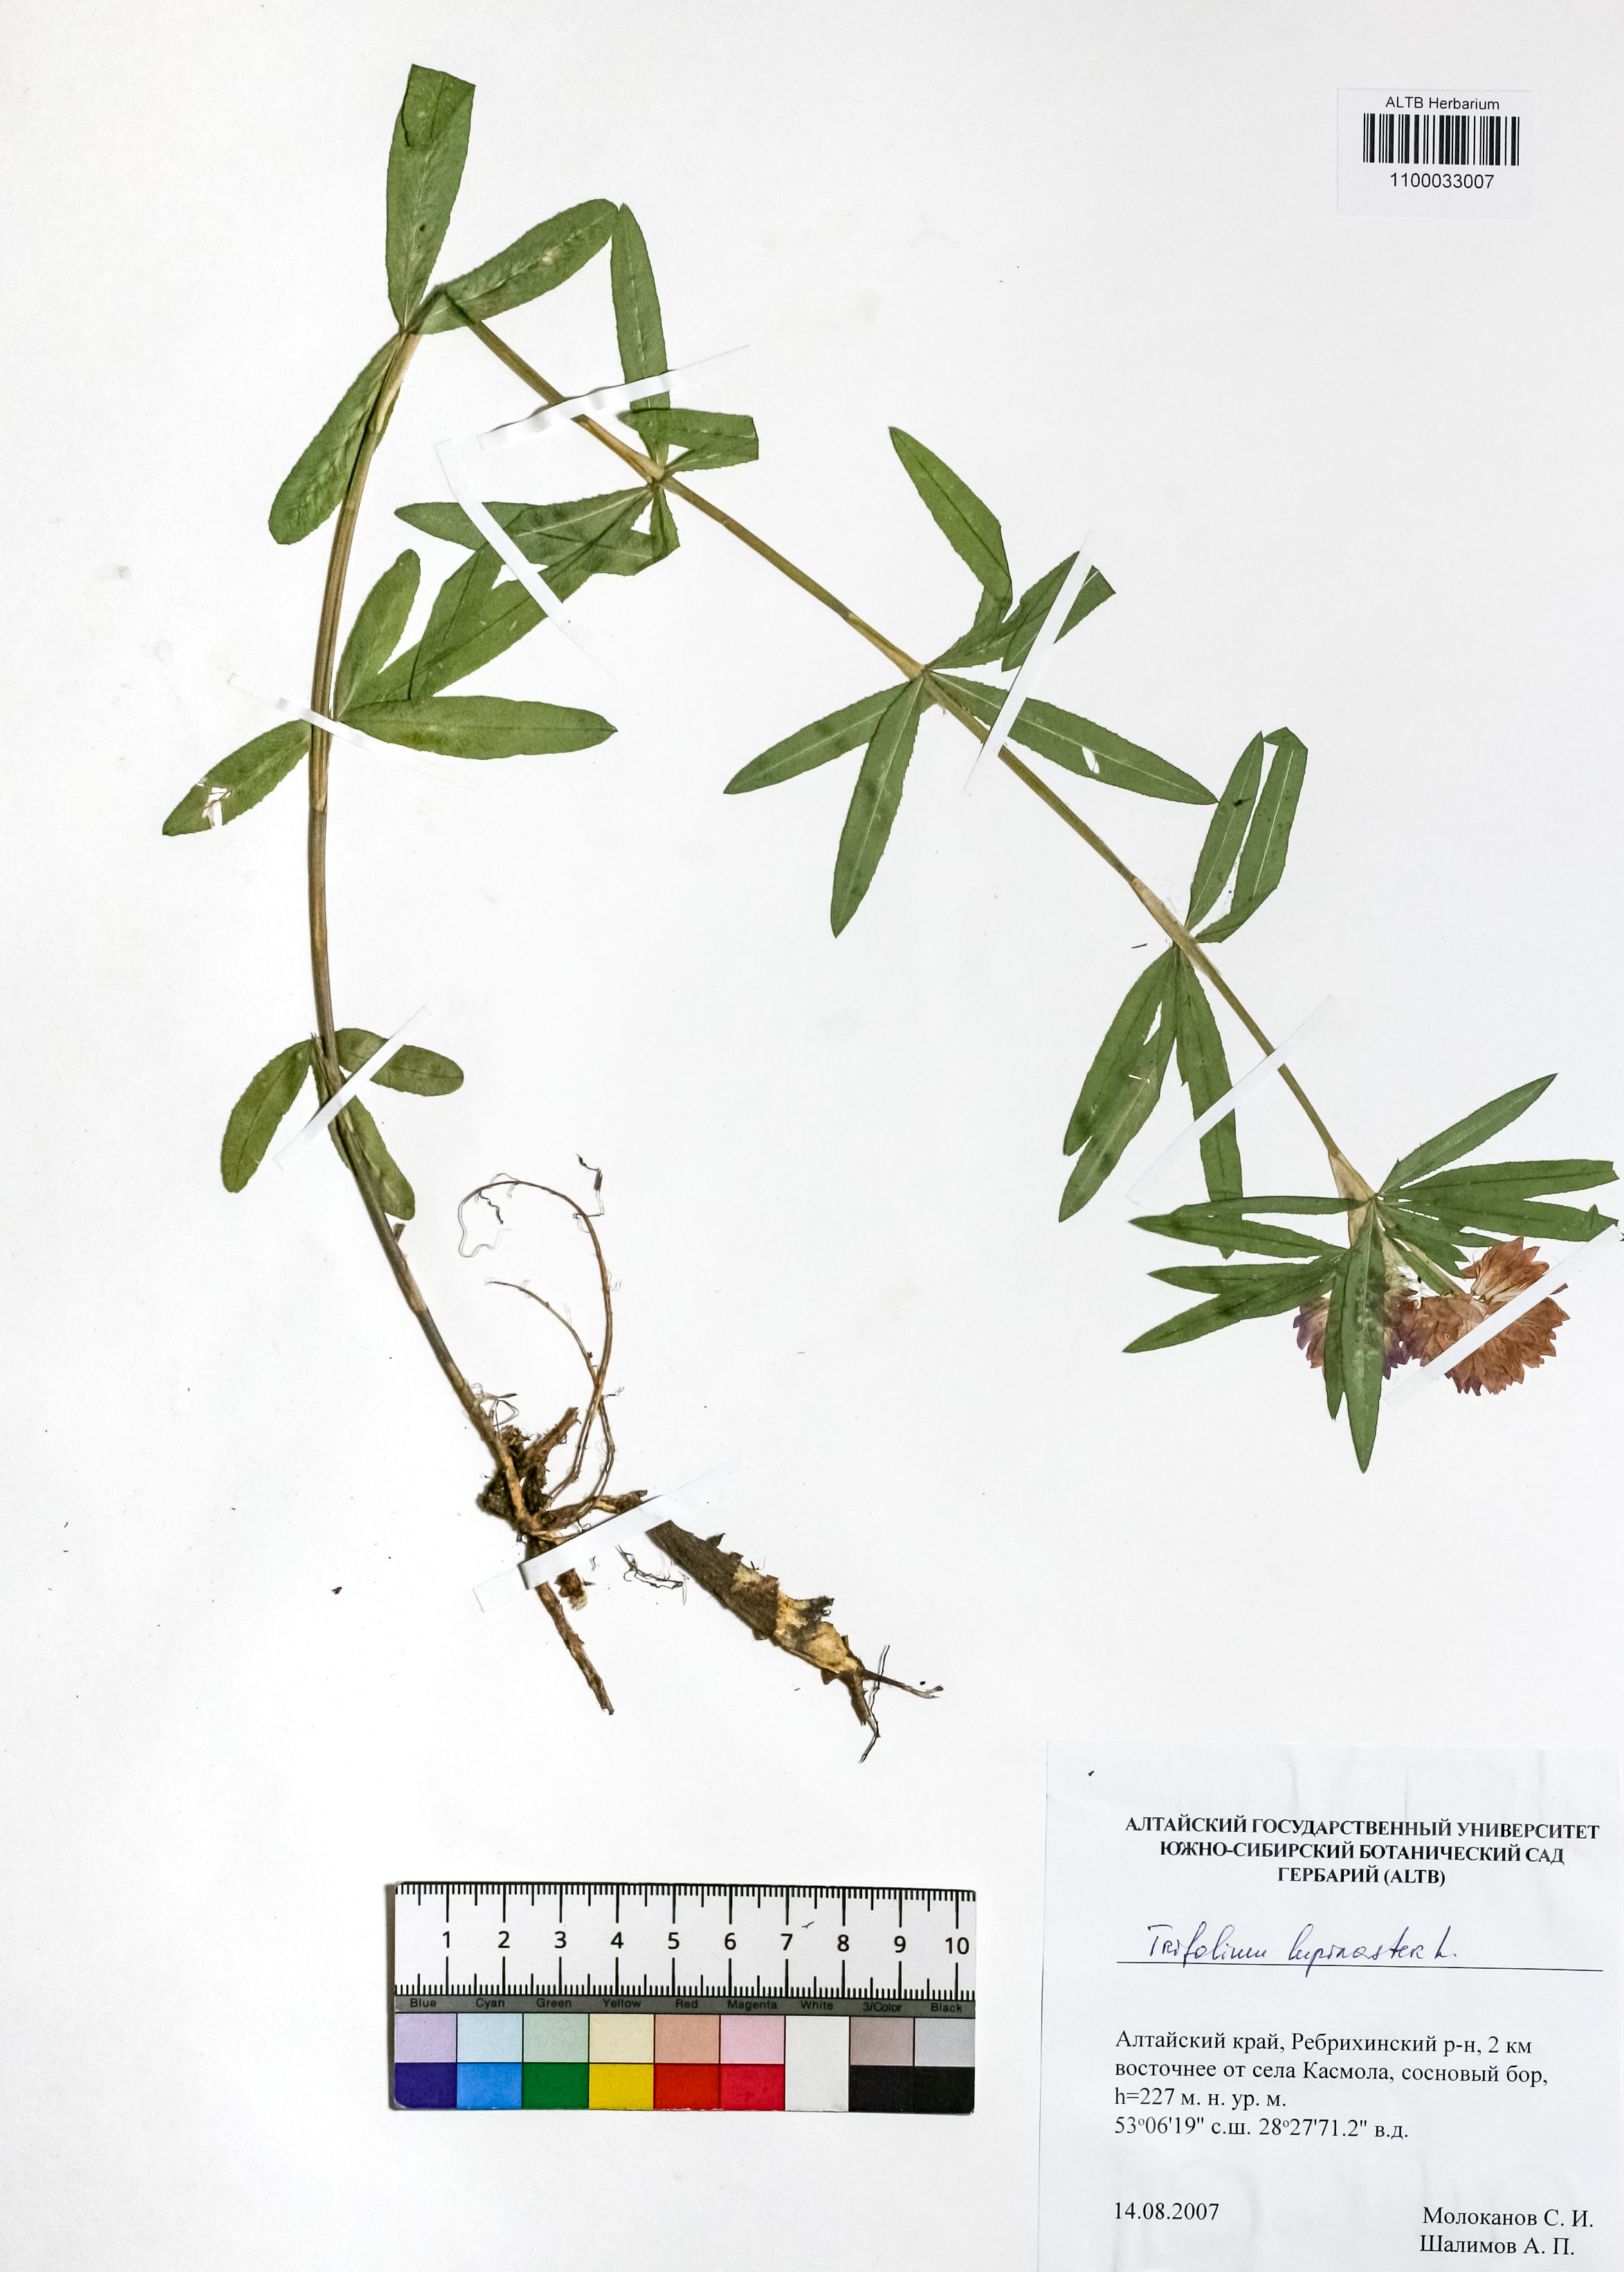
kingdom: Plantae
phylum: Tracheophyta
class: Magnoliopsida
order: Fabales
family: Fabaceae
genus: Trifolium
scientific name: Trifolium lupinaster
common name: Lupine clover
